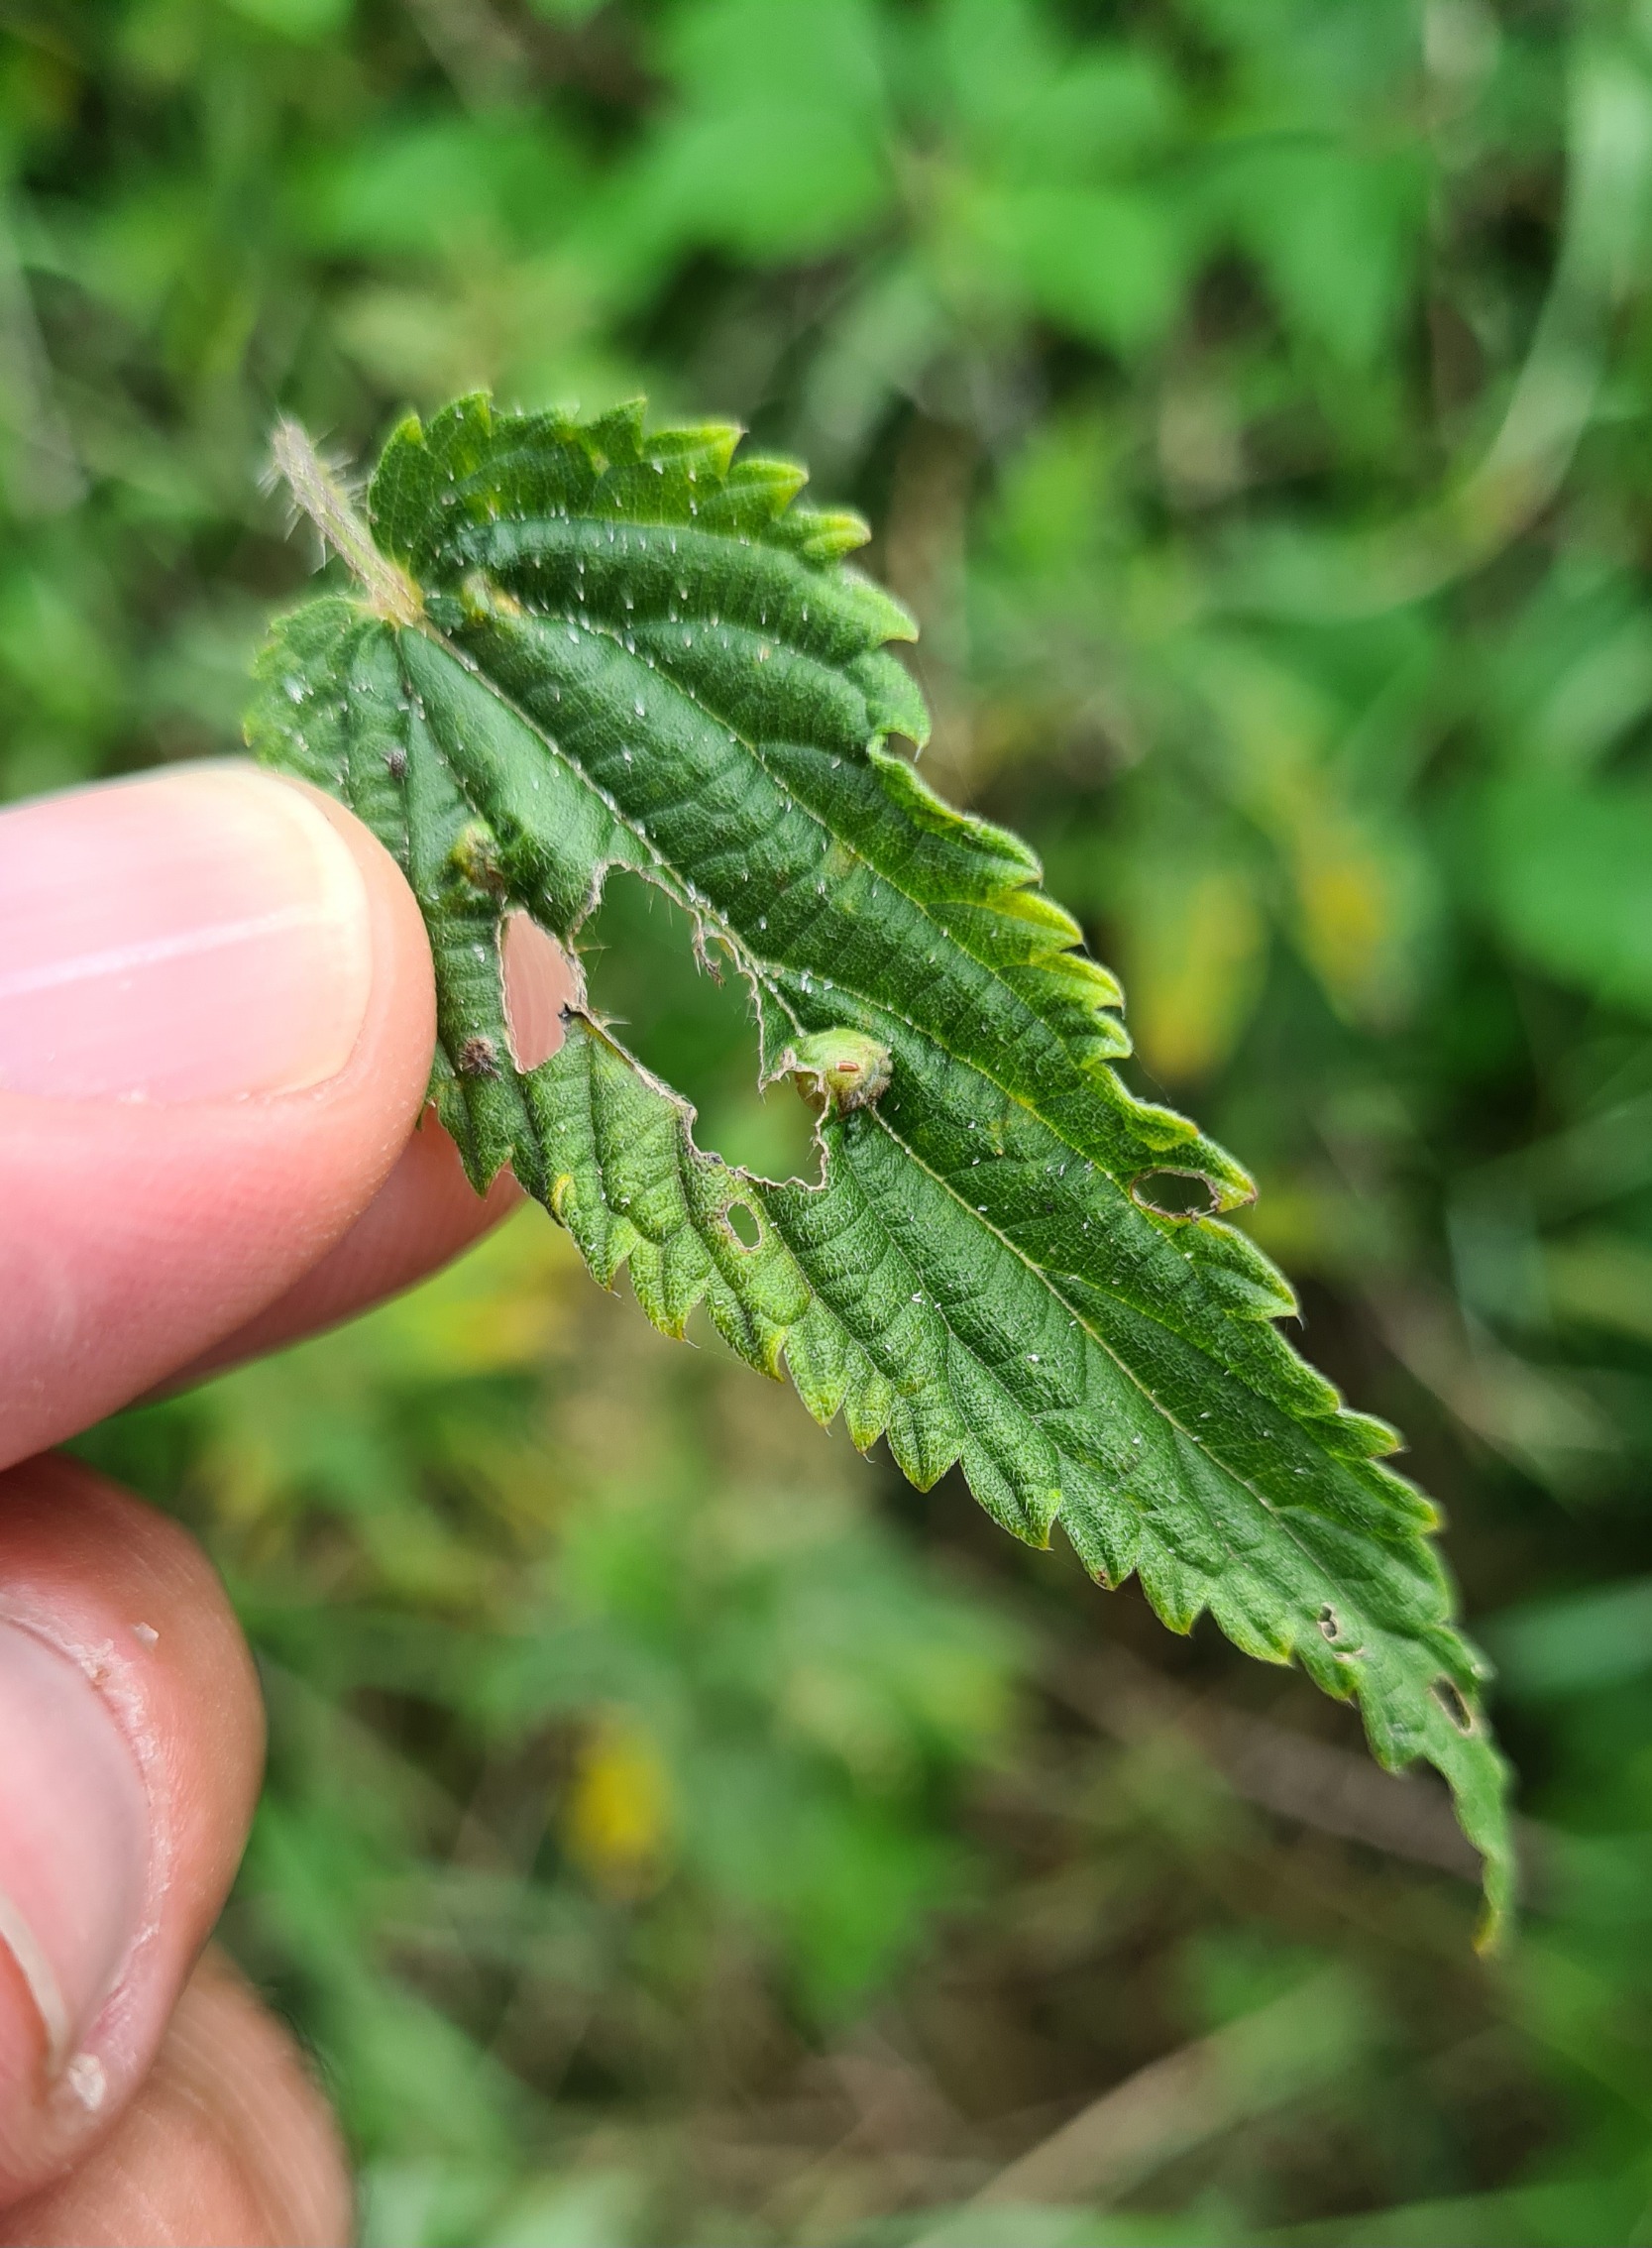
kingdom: Animalia
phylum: Arthropoda
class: Insecta
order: Diptera
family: Cecidomyiidae
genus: Dasineura
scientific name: Dasineura urticae
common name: Nældepunggalmyg
